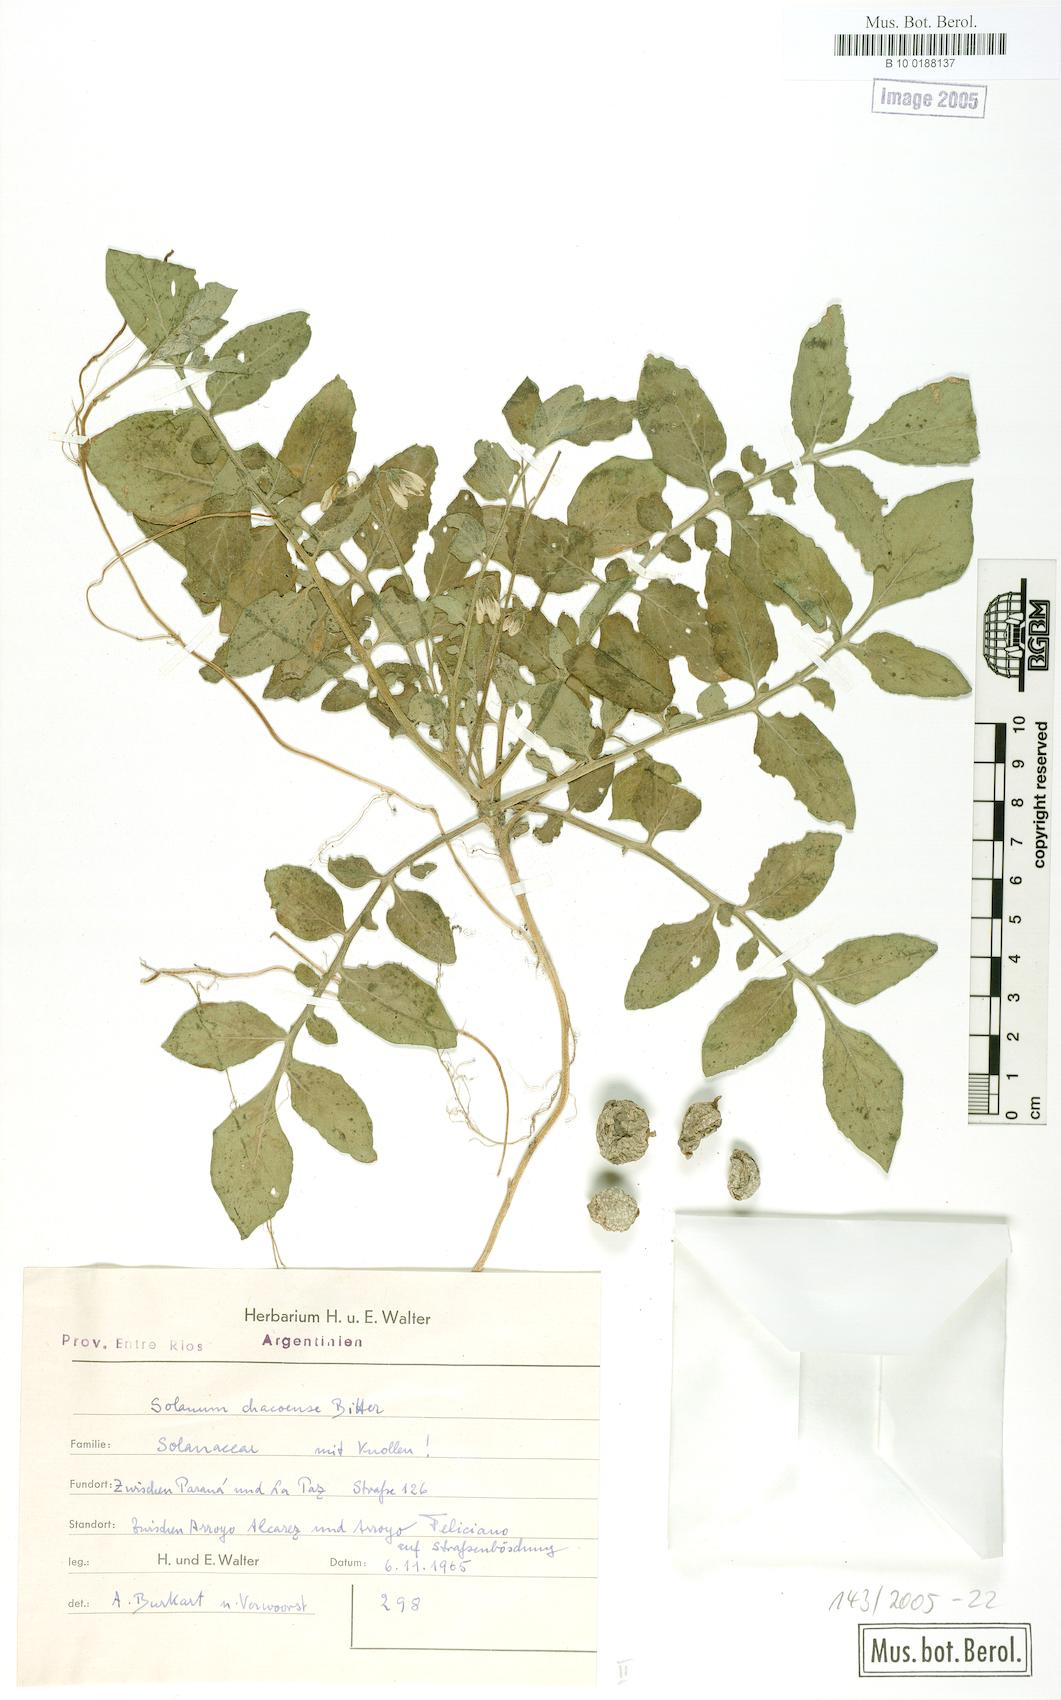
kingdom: Plantae
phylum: Tracheophyta
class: Magnoliopsida
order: Solanales
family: Solanaceae
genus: Solanum
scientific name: Solanum chacoense
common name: Chaco potato
